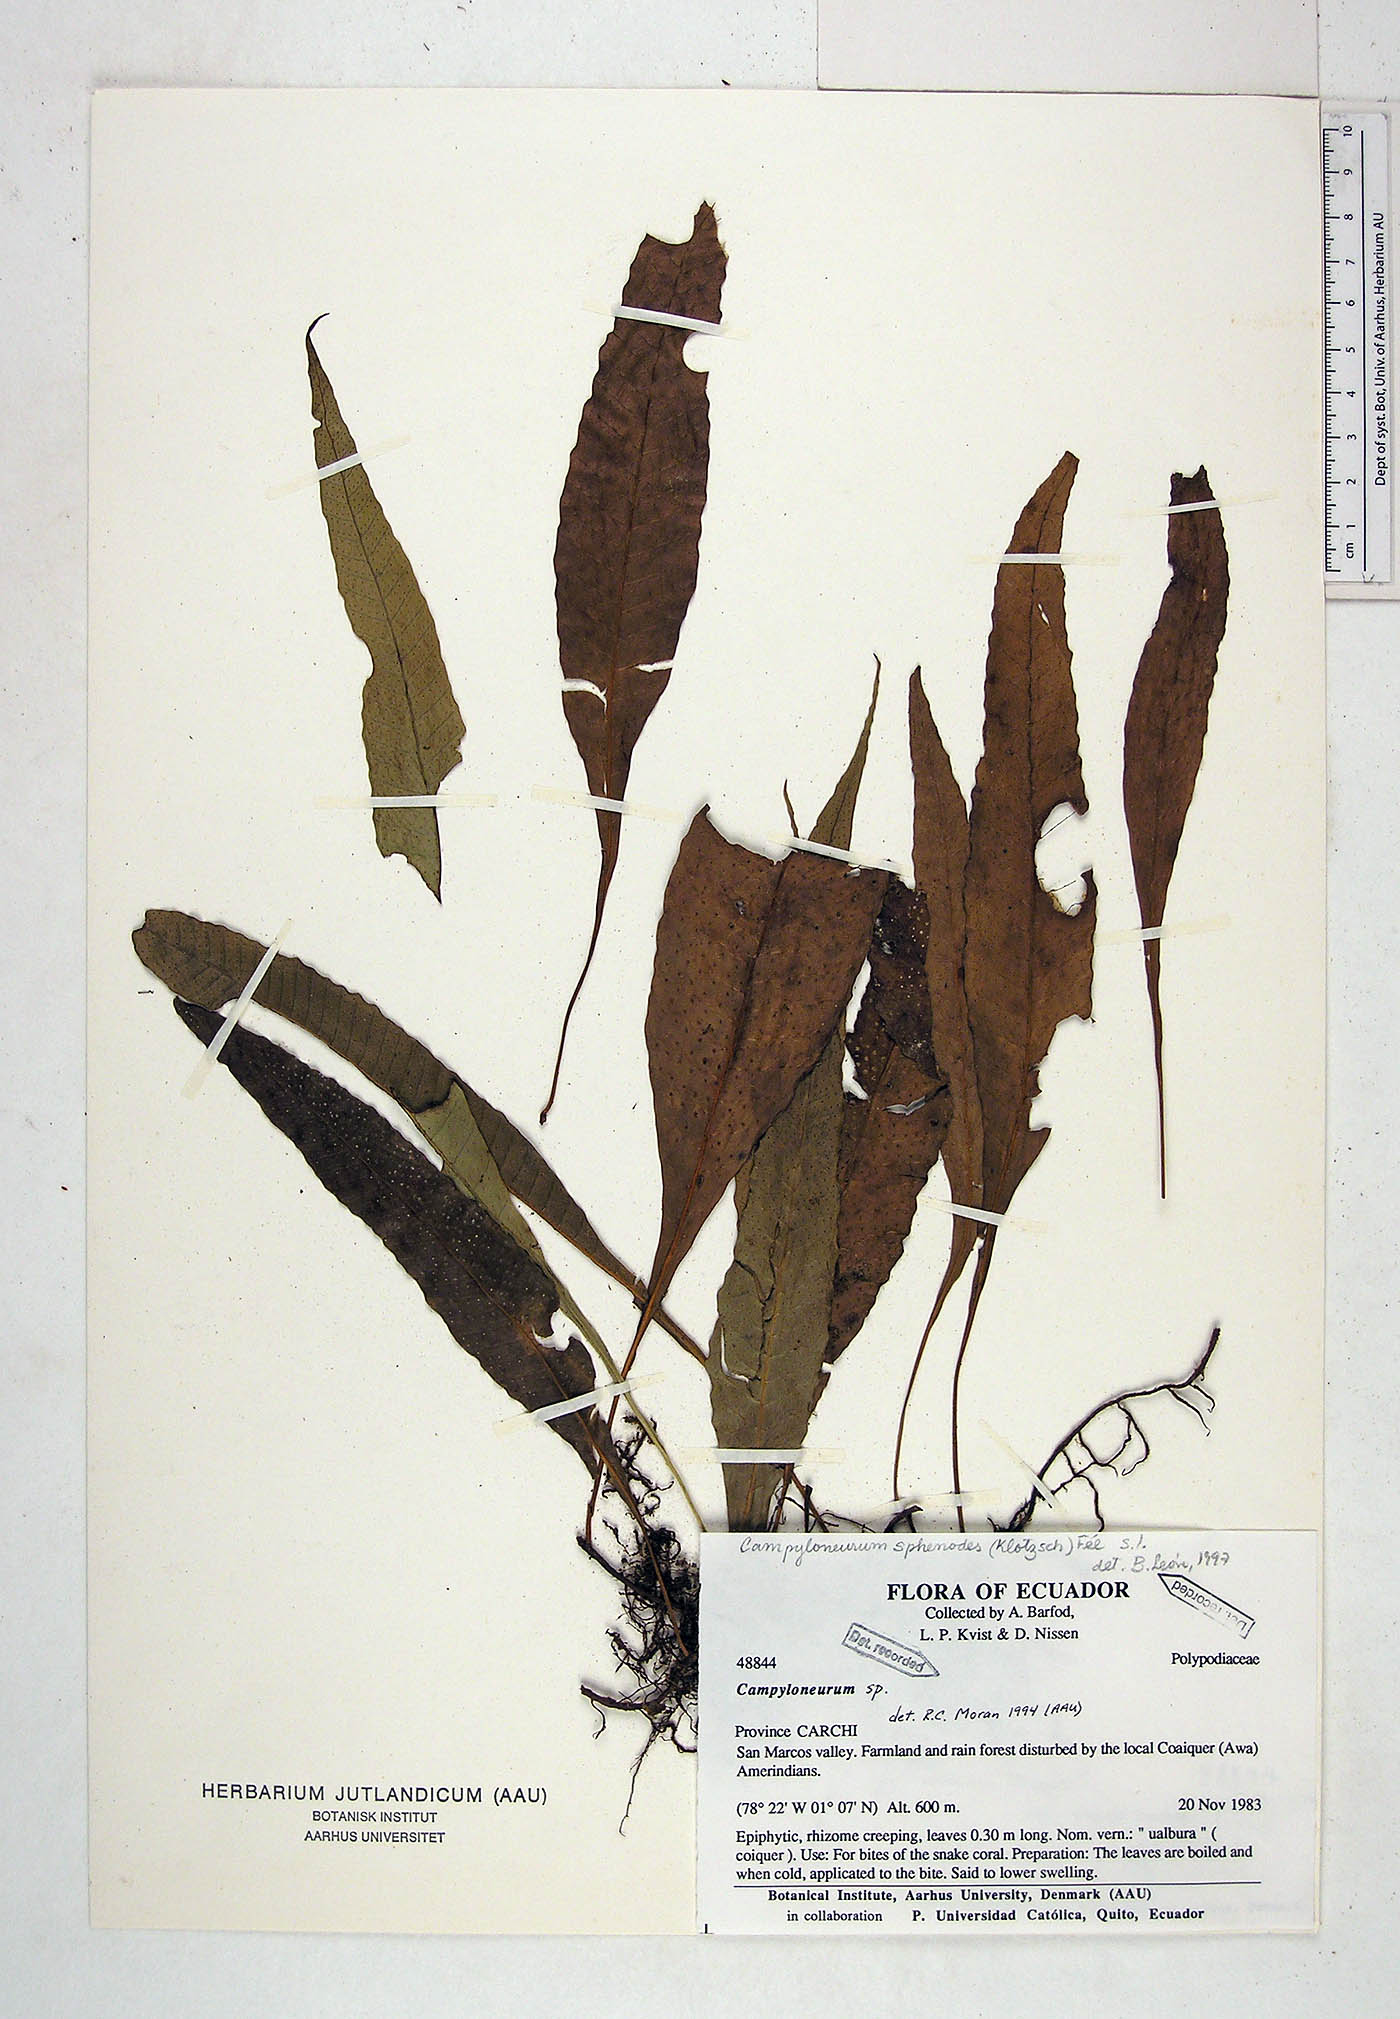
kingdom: Plantae
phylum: Tracheophyta
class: Polypodiopsida
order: Polypodiales
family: Polypodiaceae
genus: Campyloneurum
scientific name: Campyloneurum sphenodes
